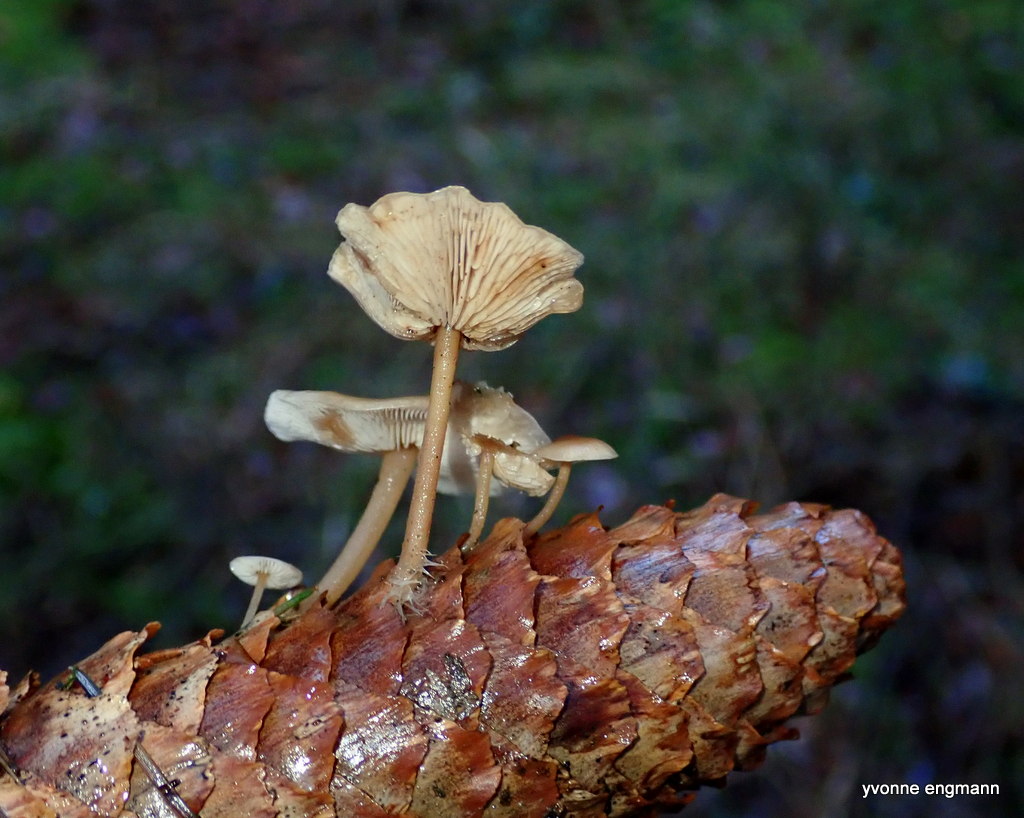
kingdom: Fungi
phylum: Basidiomycota
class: Agaricomycetes
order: Agaricales
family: Marasmiaceae
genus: Baeospora
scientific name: Baeospora myosura
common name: koglebruskhat
